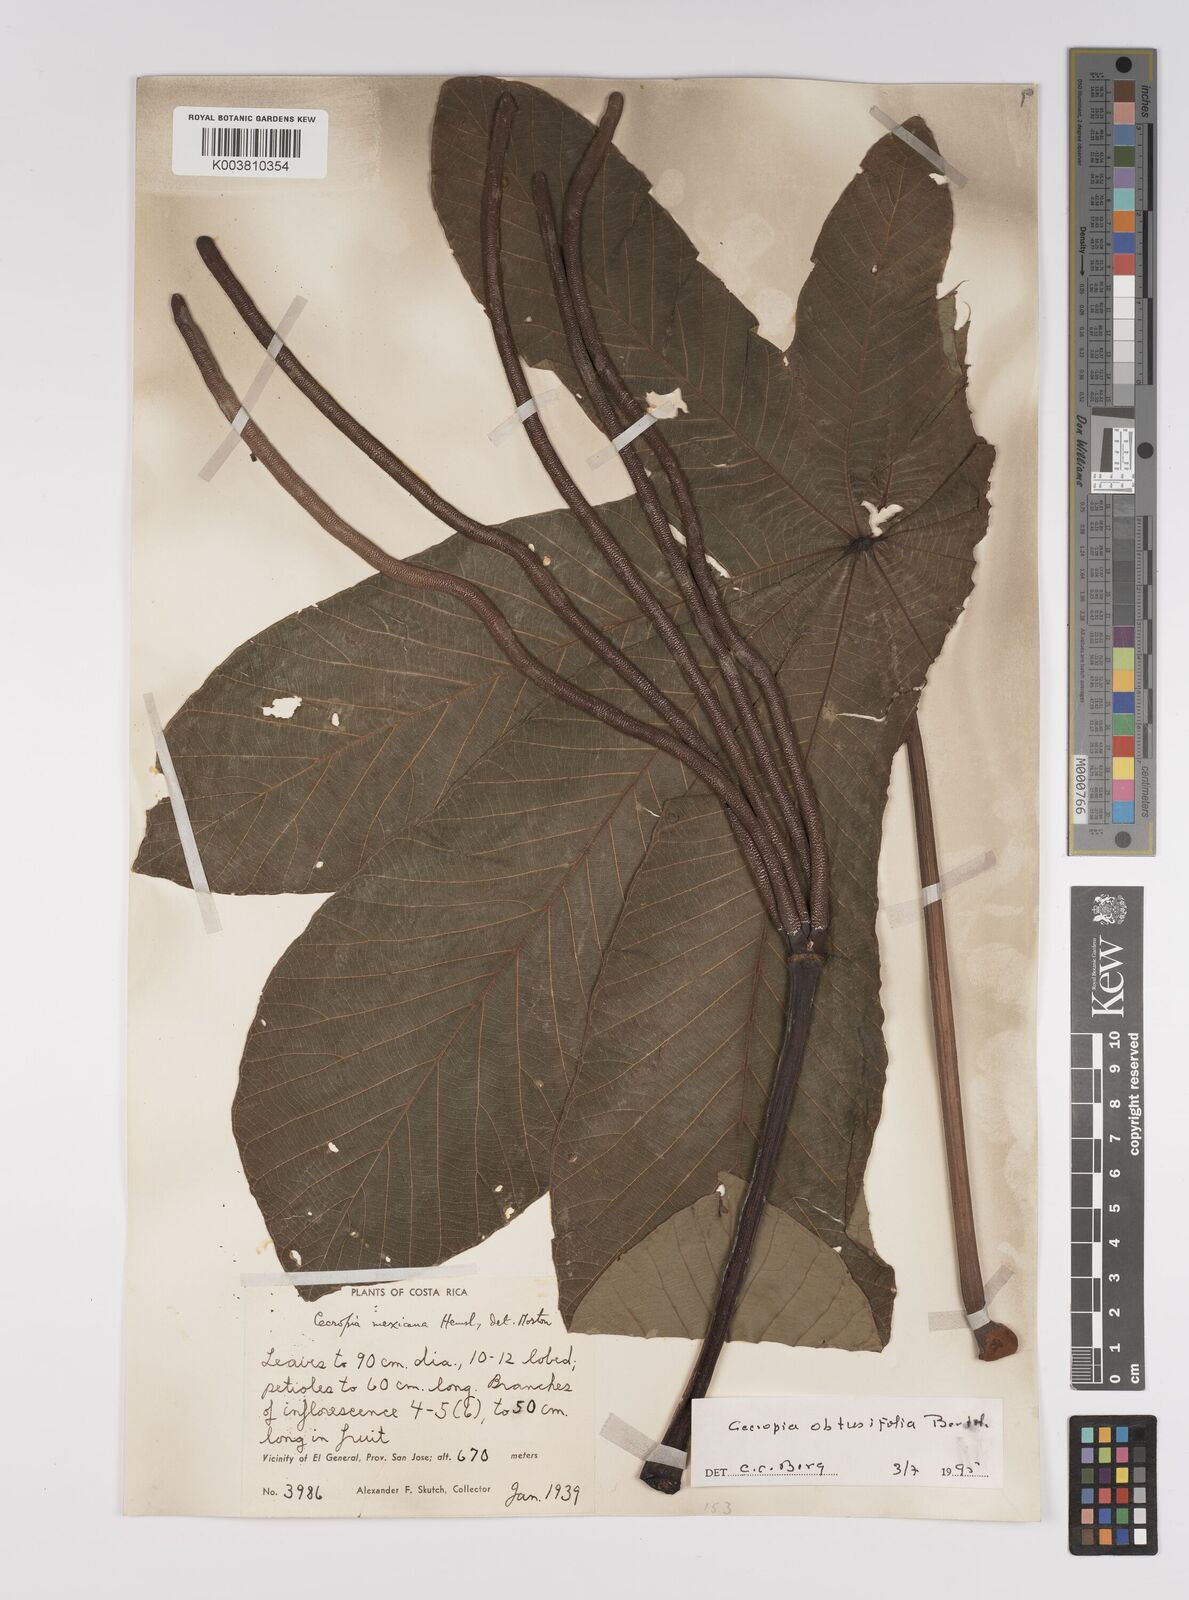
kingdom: Plantae
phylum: Tracheophyta
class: Magnoliopsida
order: Rosales
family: Urticaceae
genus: Cecropia
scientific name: Cecropia obtusifolia
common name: Trumpet tree
